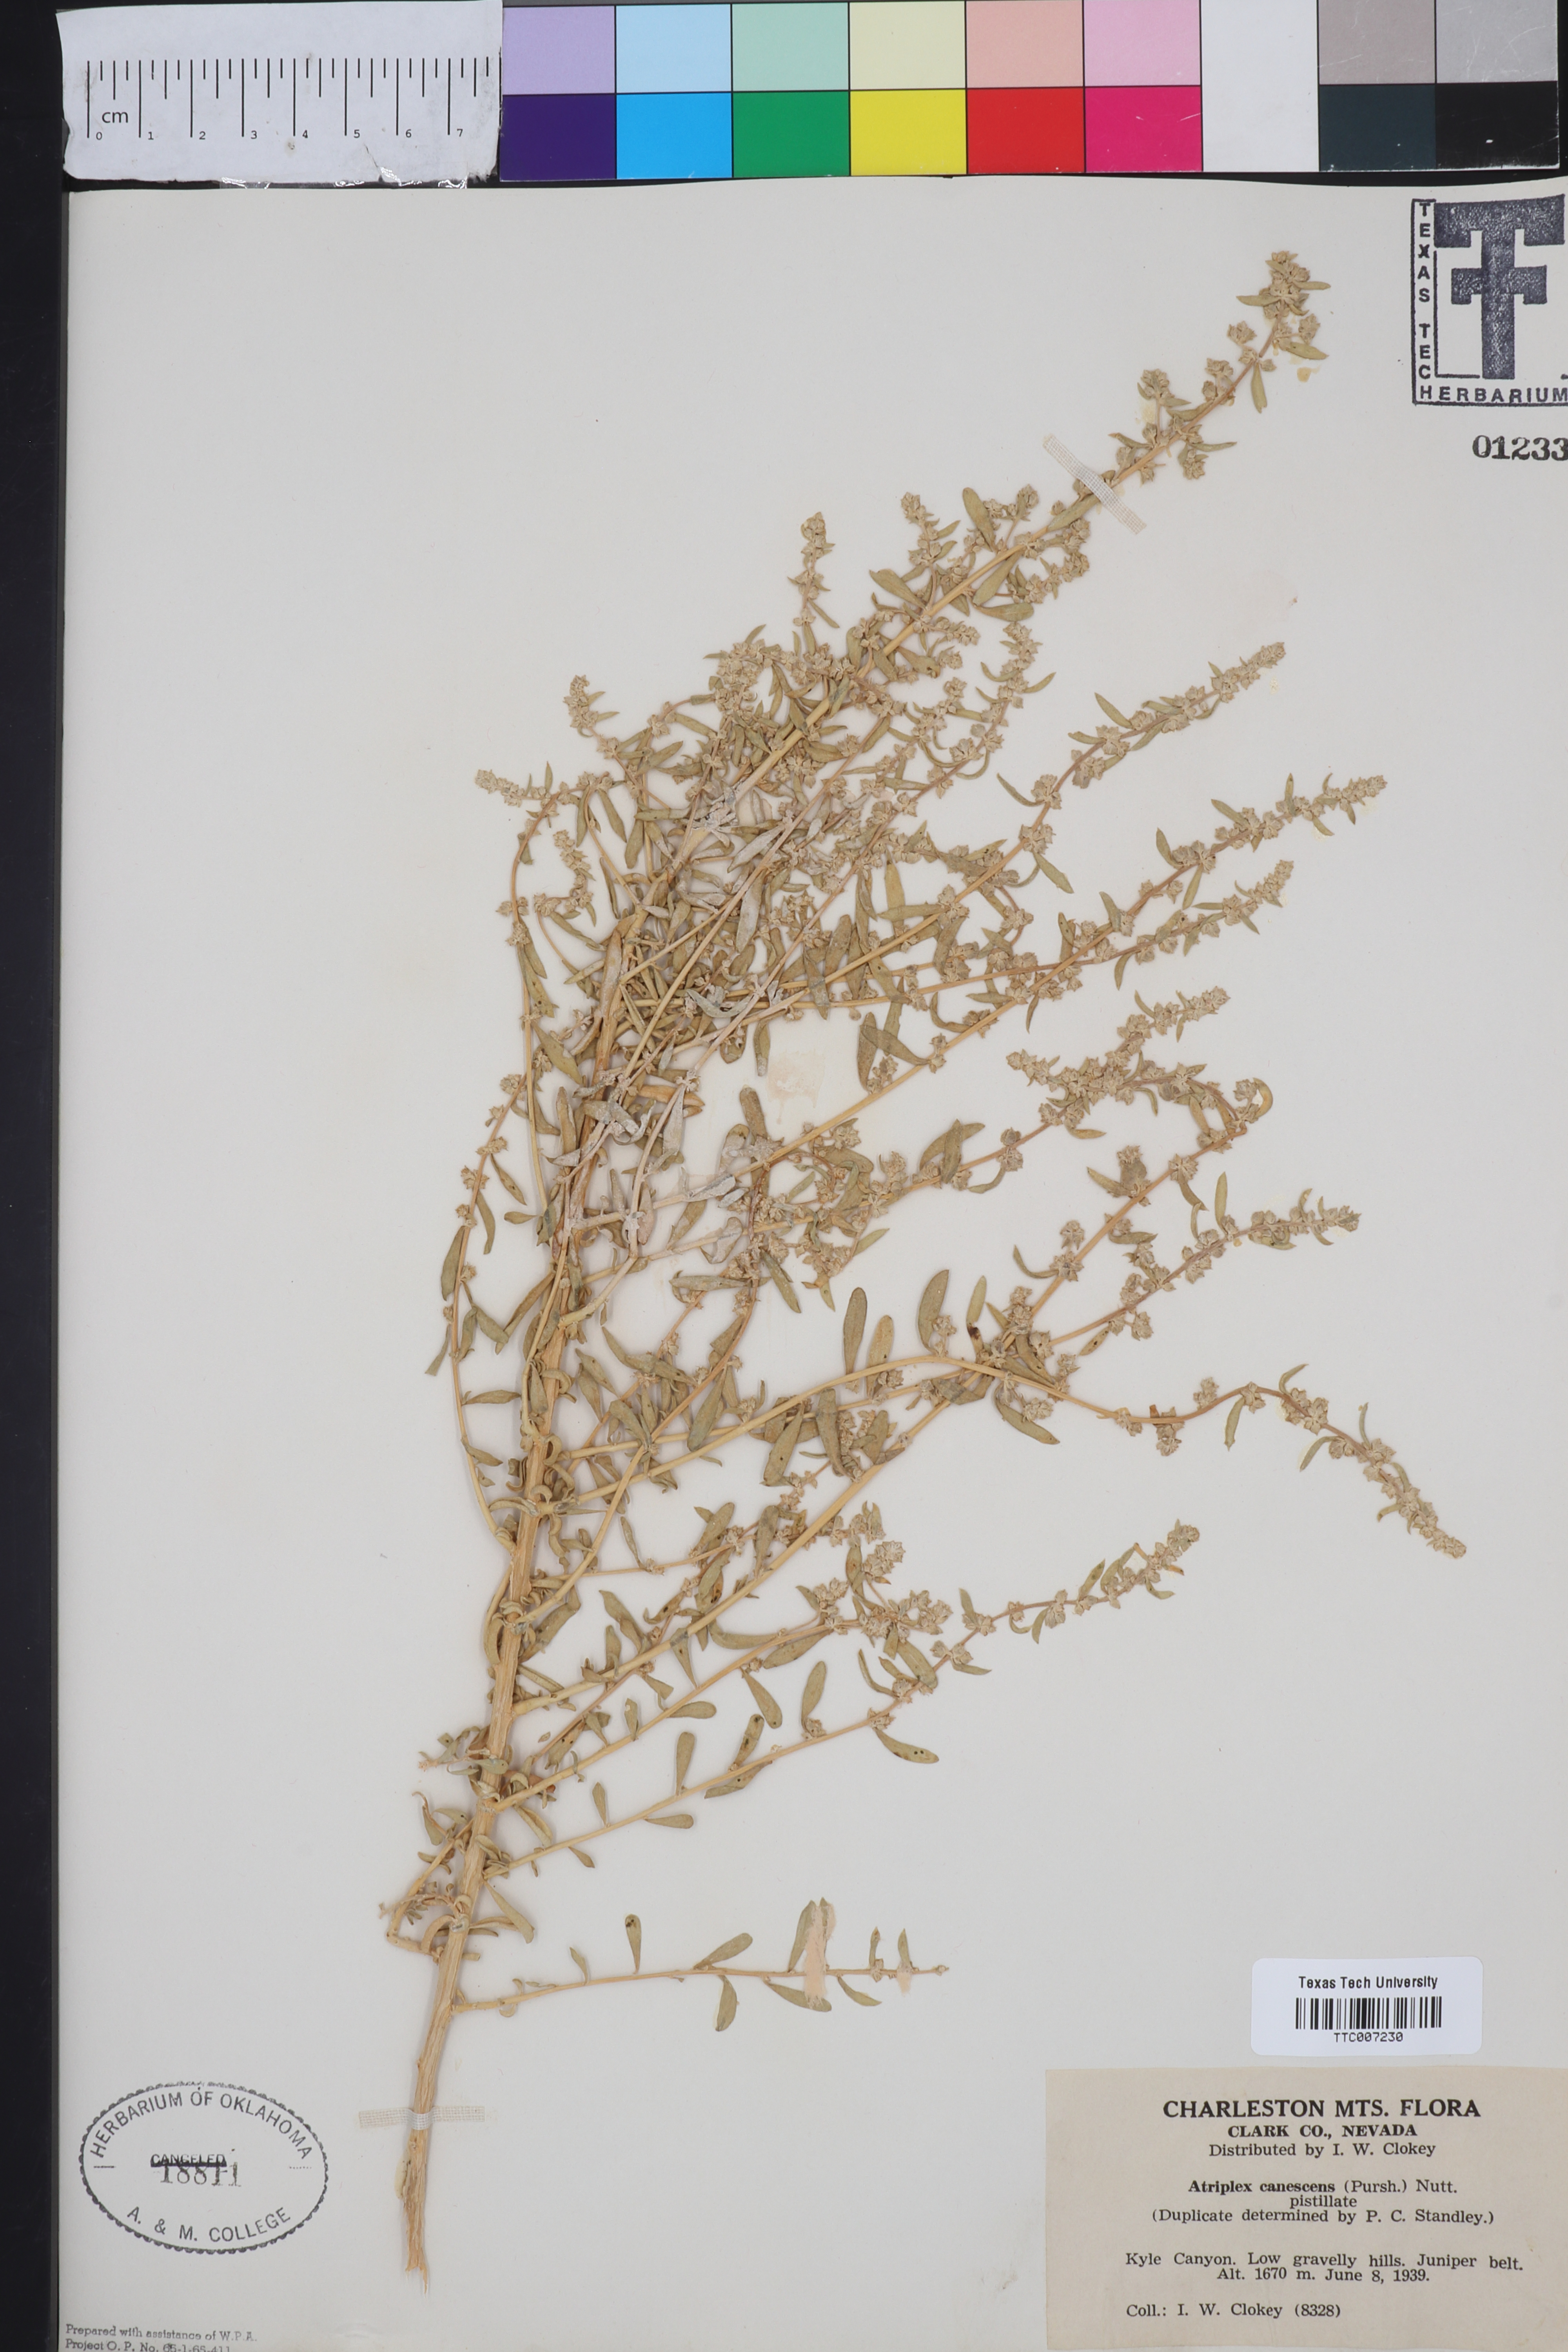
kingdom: Plantae
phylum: Tracheophyta
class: Magnoliopsida
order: Caryophyllales
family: Amaranthaceae
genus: Atriplex
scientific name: Atriplex canescens
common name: Four-wing saltbush
